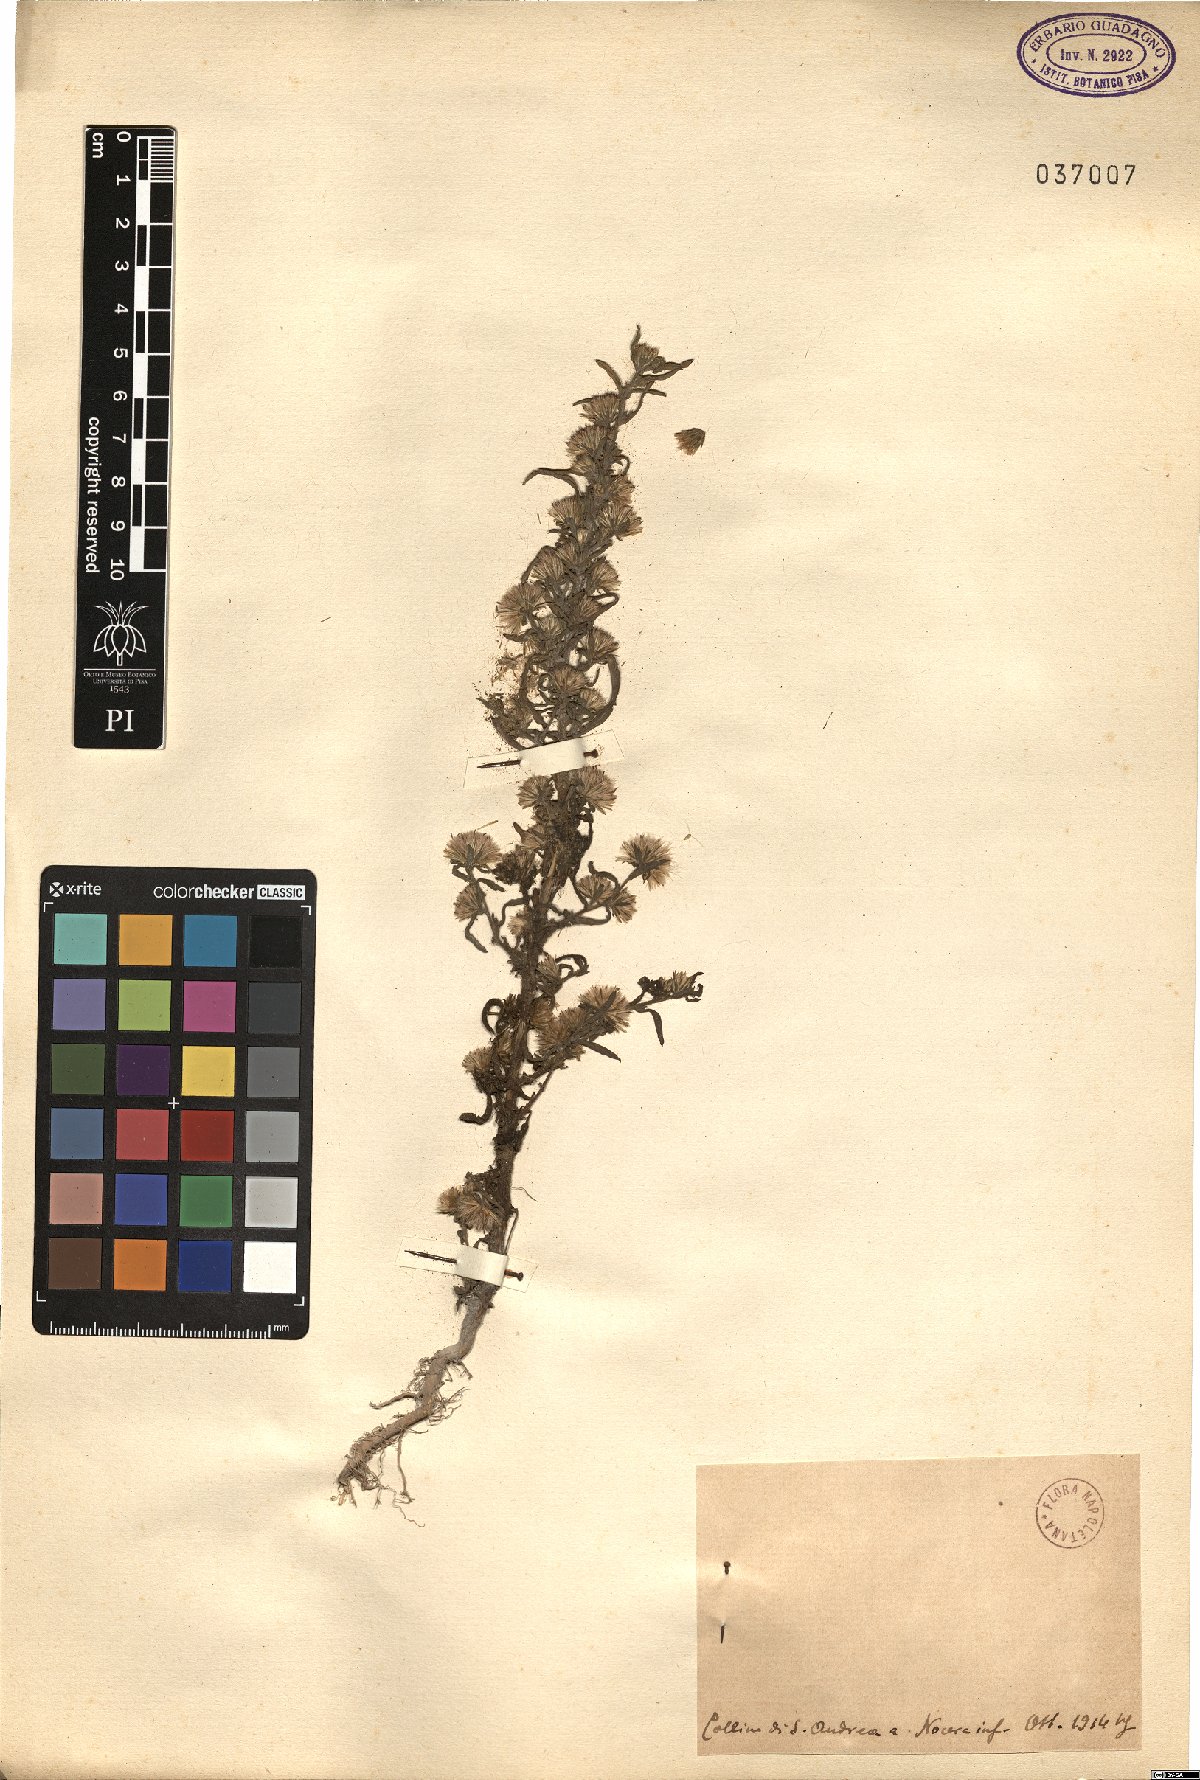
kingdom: Plantae
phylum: Tracheophyta
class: Magnoliopsida
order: Asterales
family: Asteraceae
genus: Pulicaria
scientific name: Pulicaria
